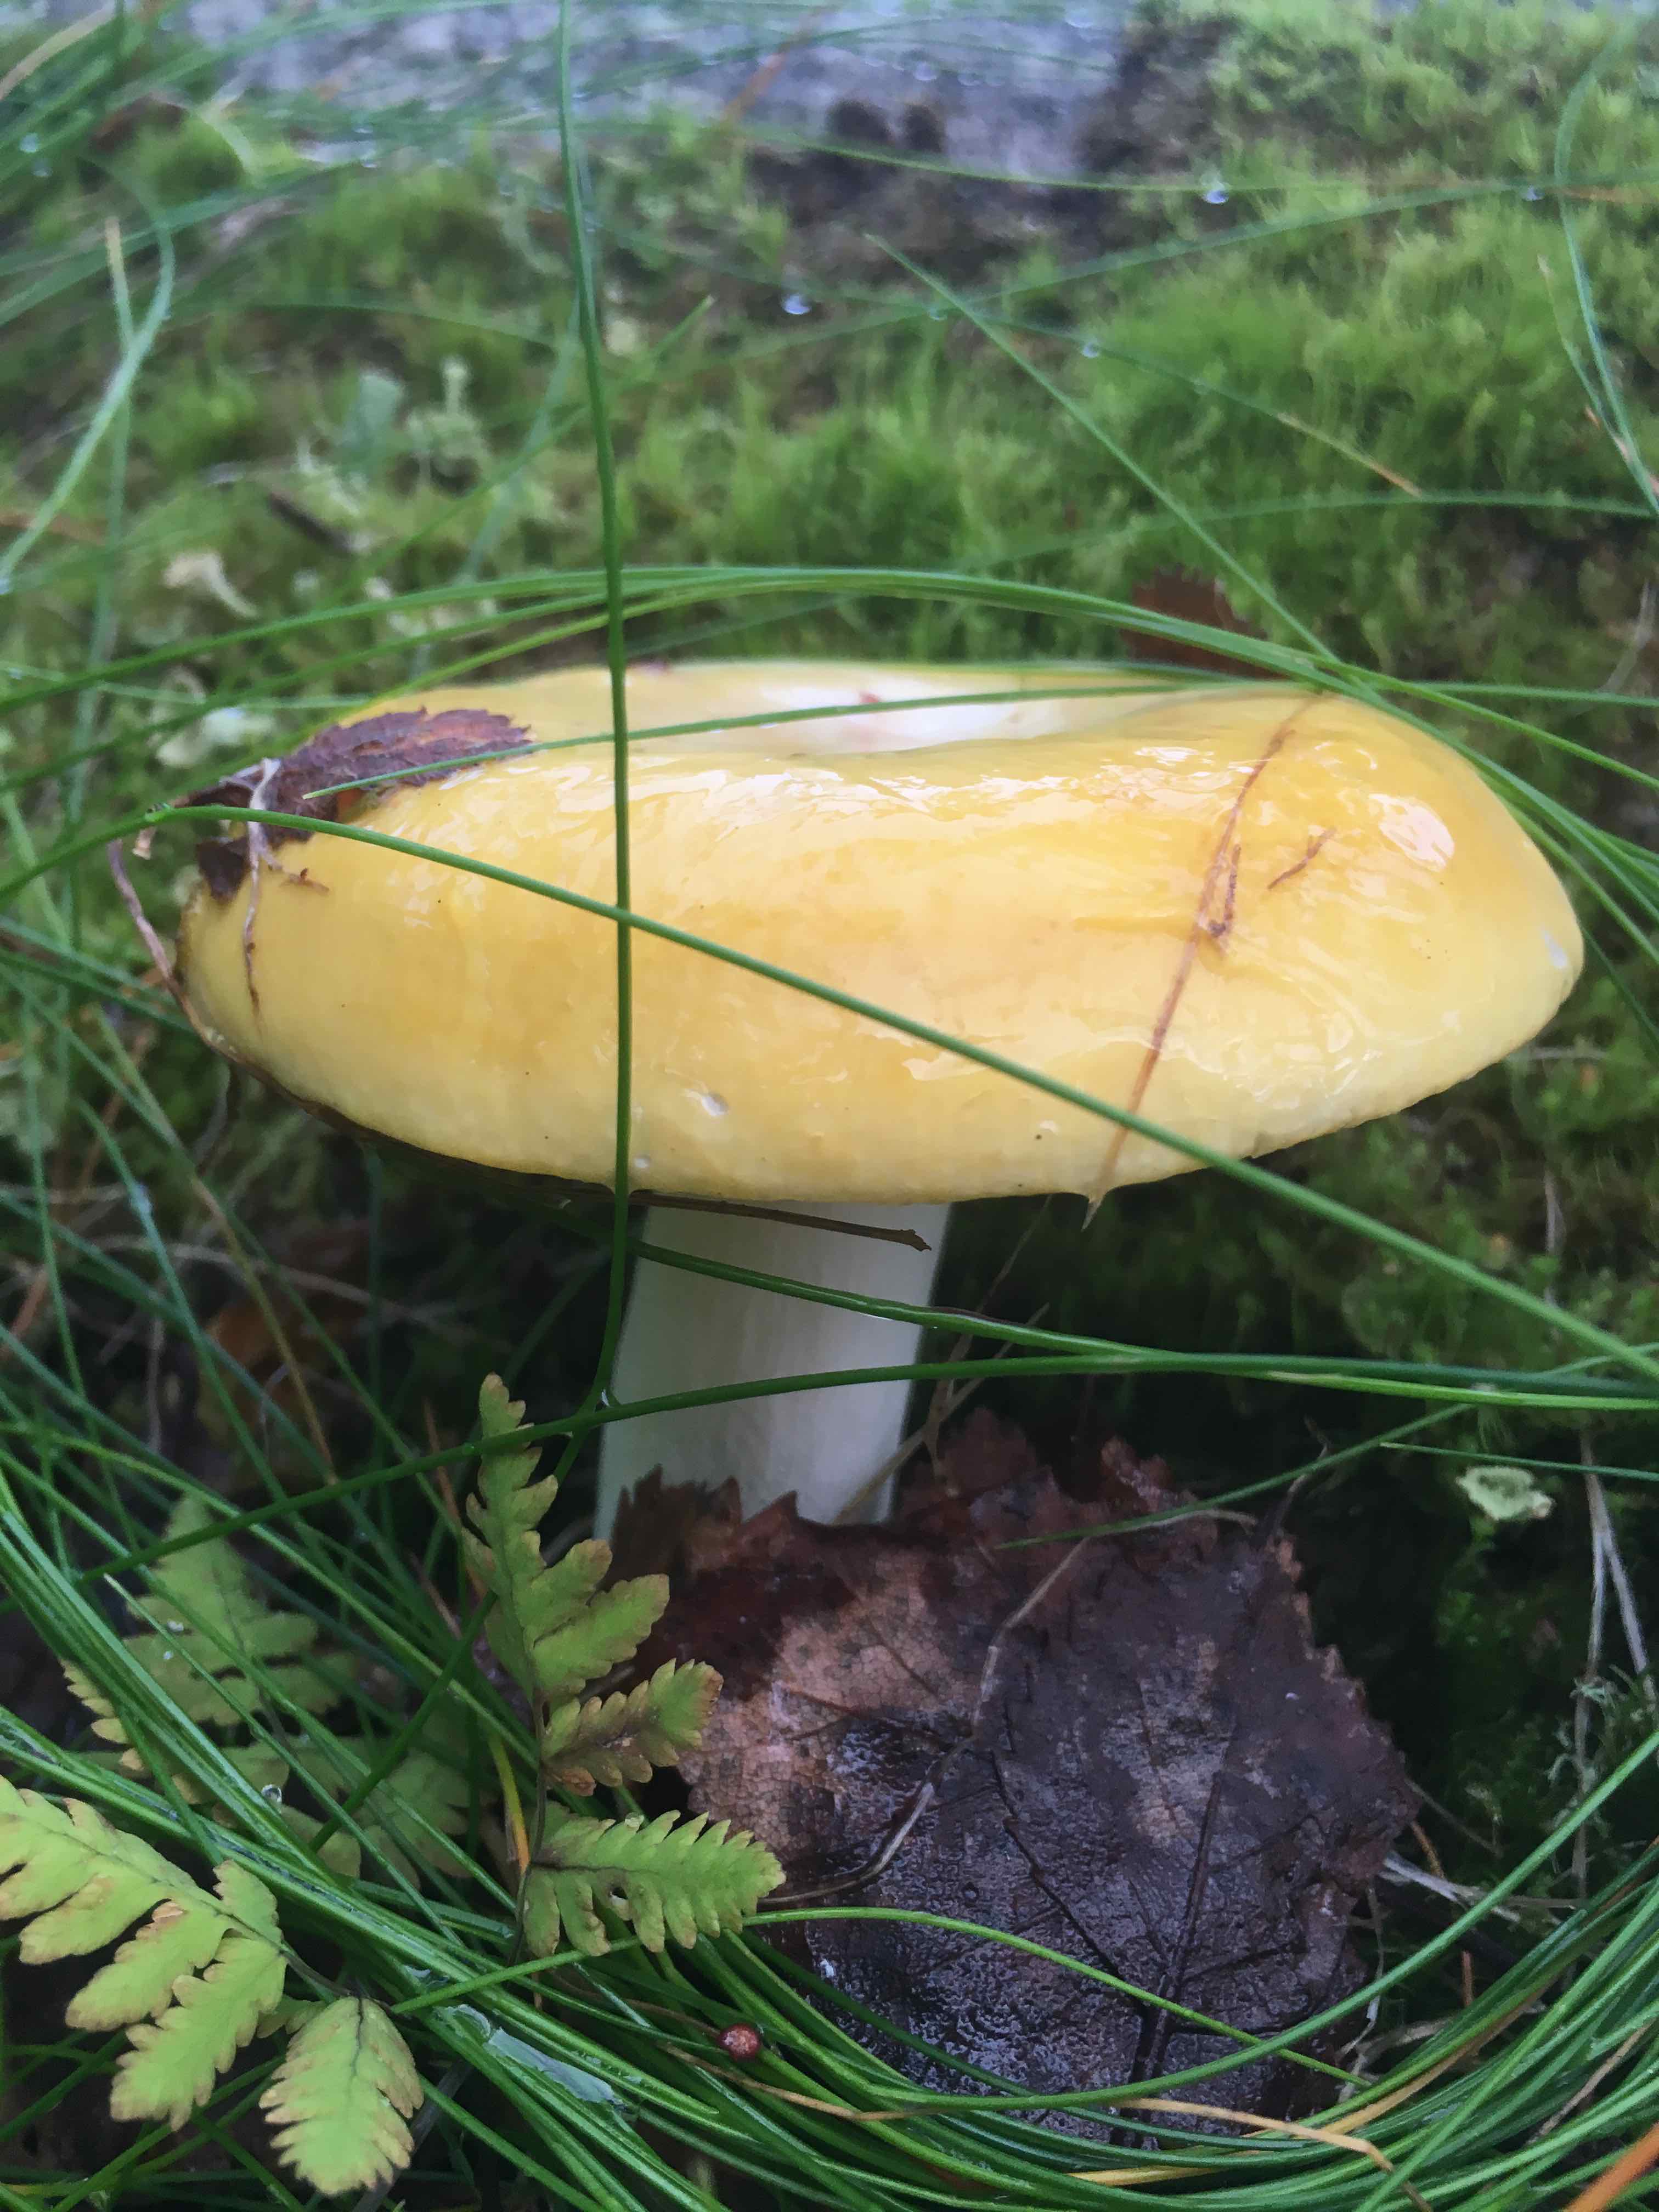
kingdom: Fungi
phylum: Basidiomycota
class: Agaricomycetes
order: Russulales
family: Russulaceae
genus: Russula
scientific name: Russula claroflava
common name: birke-skørhat
